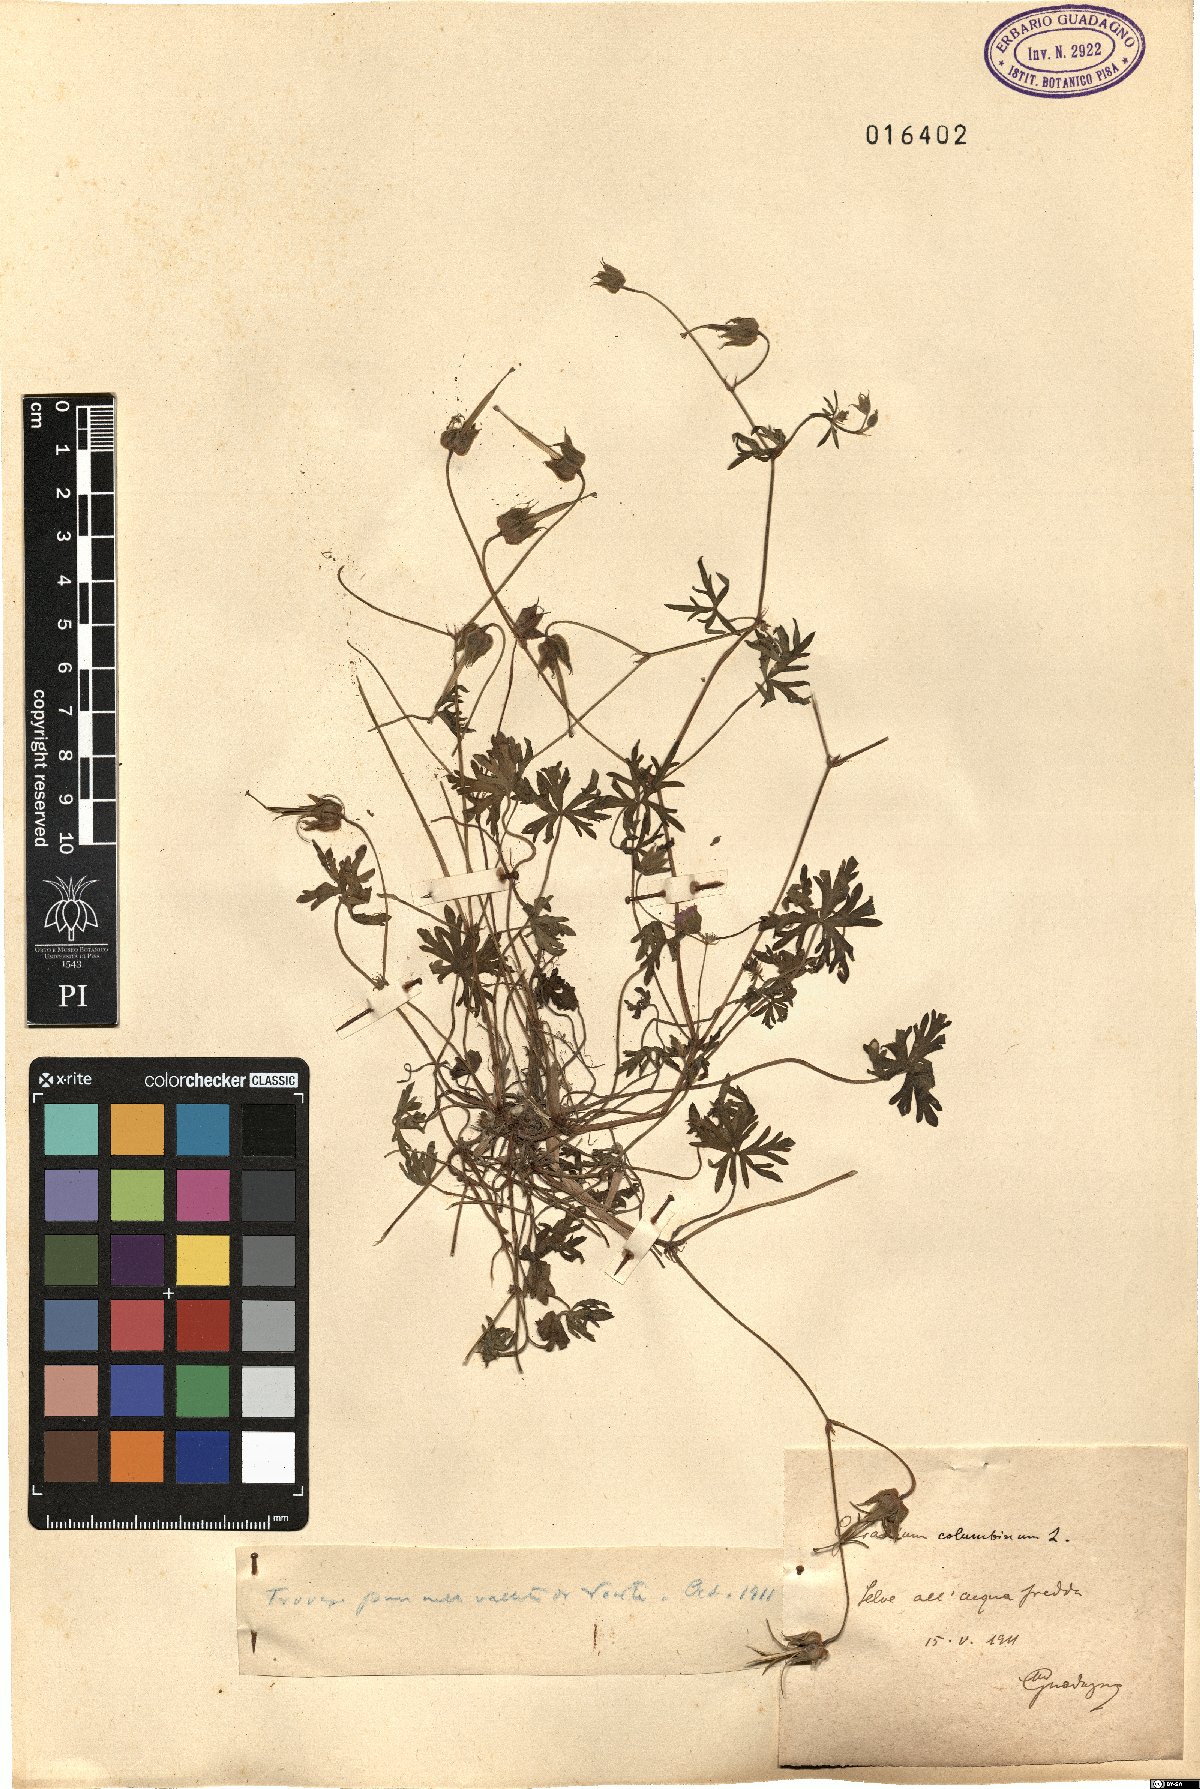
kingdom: Plantae
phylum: Tracheophyta
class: Magnoliopsida
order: Geraniales
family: Geraniaceae
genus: Geranium
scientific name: Geranium columbinum
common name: Long-stalked crane's-bill
